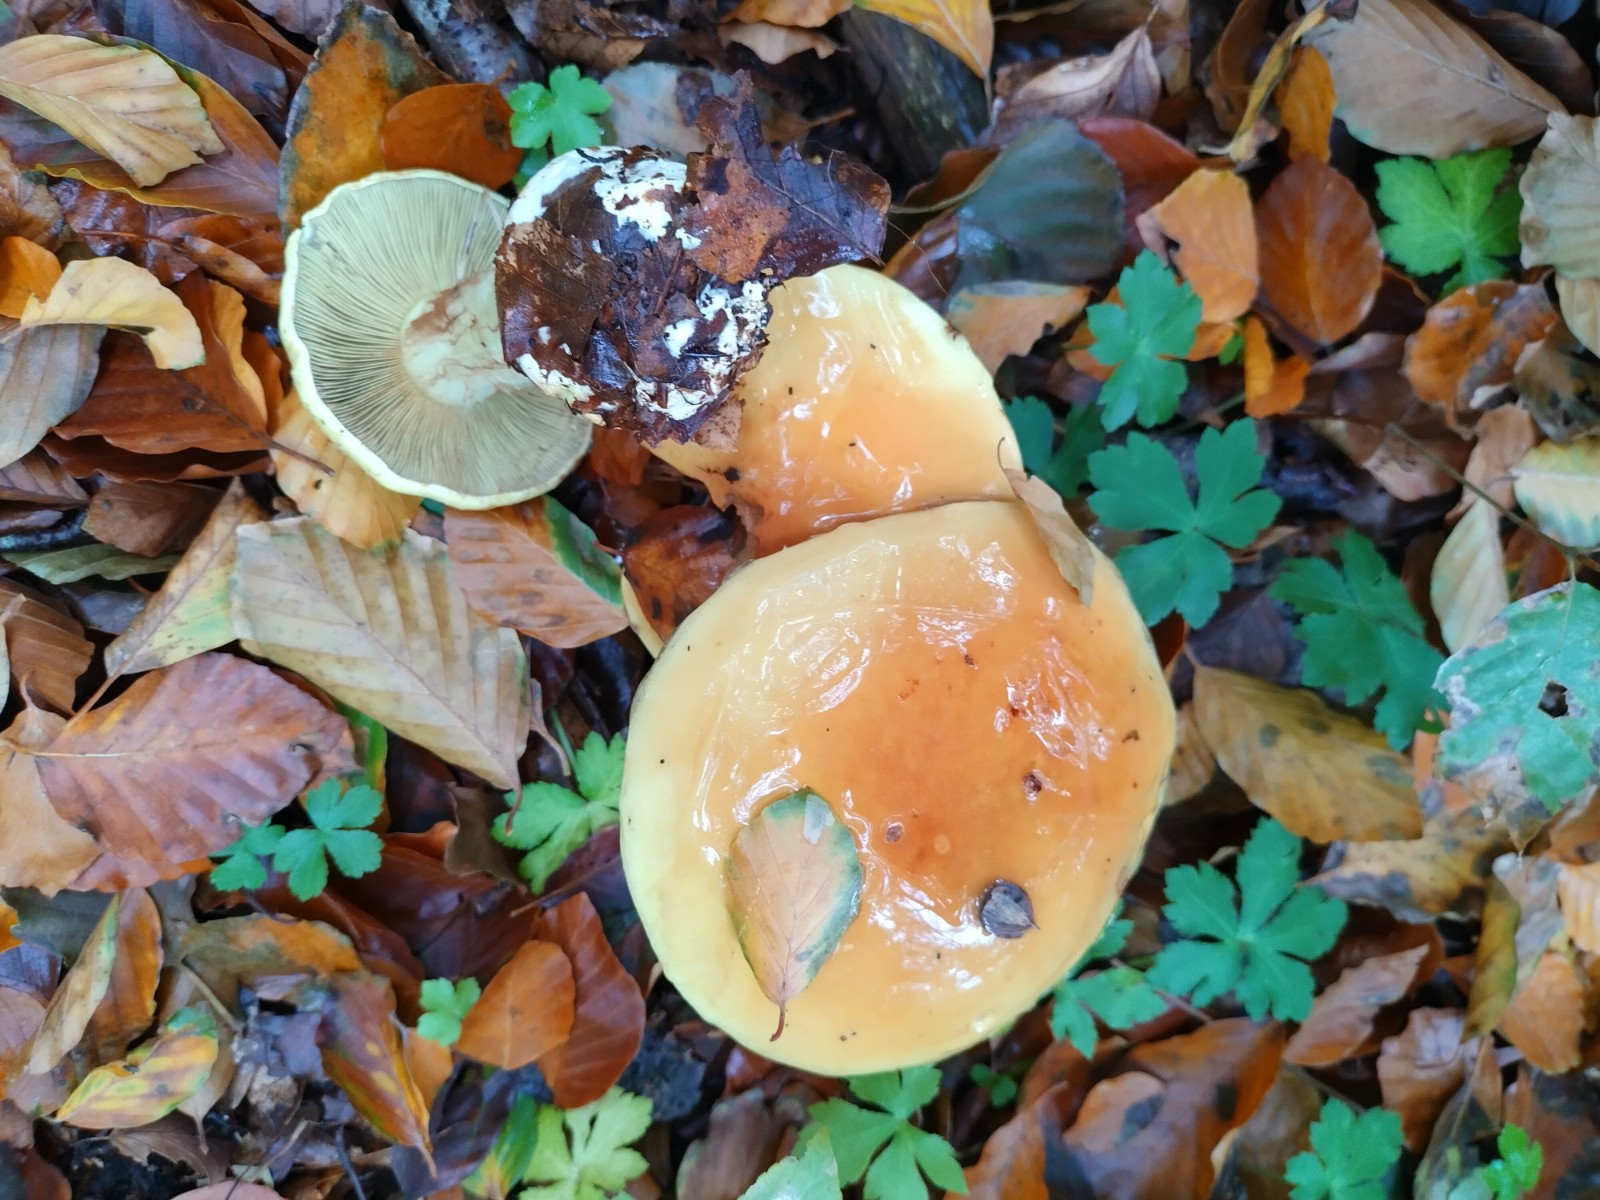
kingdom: Fungi
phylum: Basidiomycota
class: Agaricomycetes
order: Agaricales
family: Cortinariaceae
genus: Calonarius
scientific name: Calonarius elegantissimus
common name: orangegylden slørhat
